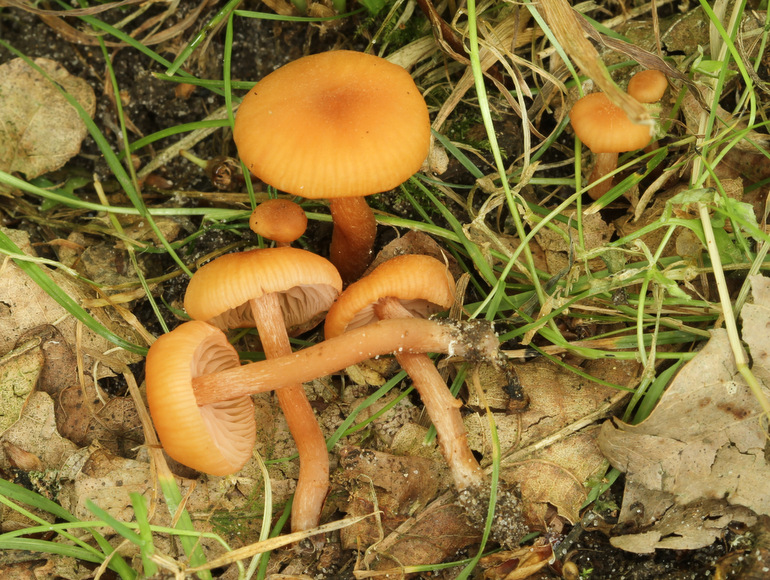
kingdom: Fungi
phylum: Basidiomycota
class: Agaricomycetes
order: Agaricales
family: Hydnangiaceae
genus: Laccaria
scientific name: Laccaria laccata
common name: rød ametysthat
